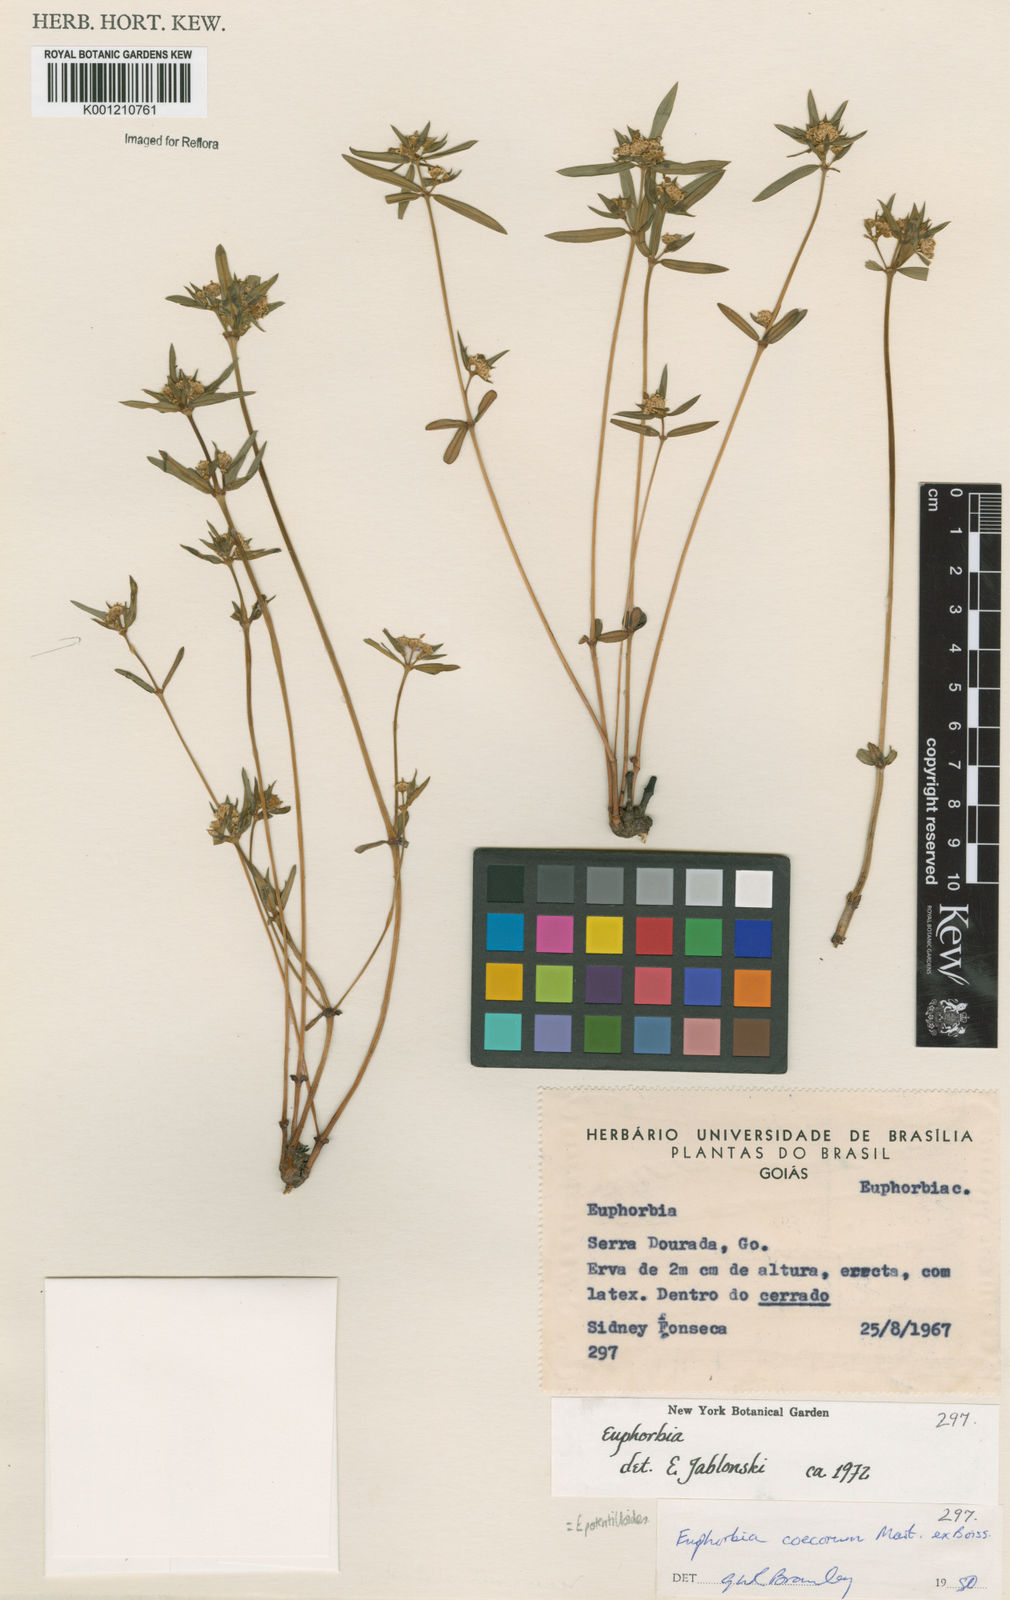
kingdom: Plantae
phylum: Tracheophyta
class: Magnoliopsida
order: Malpighiales
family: Euphorbiaceae
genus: Euphorbia
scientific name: Euphorbia potentilloides
